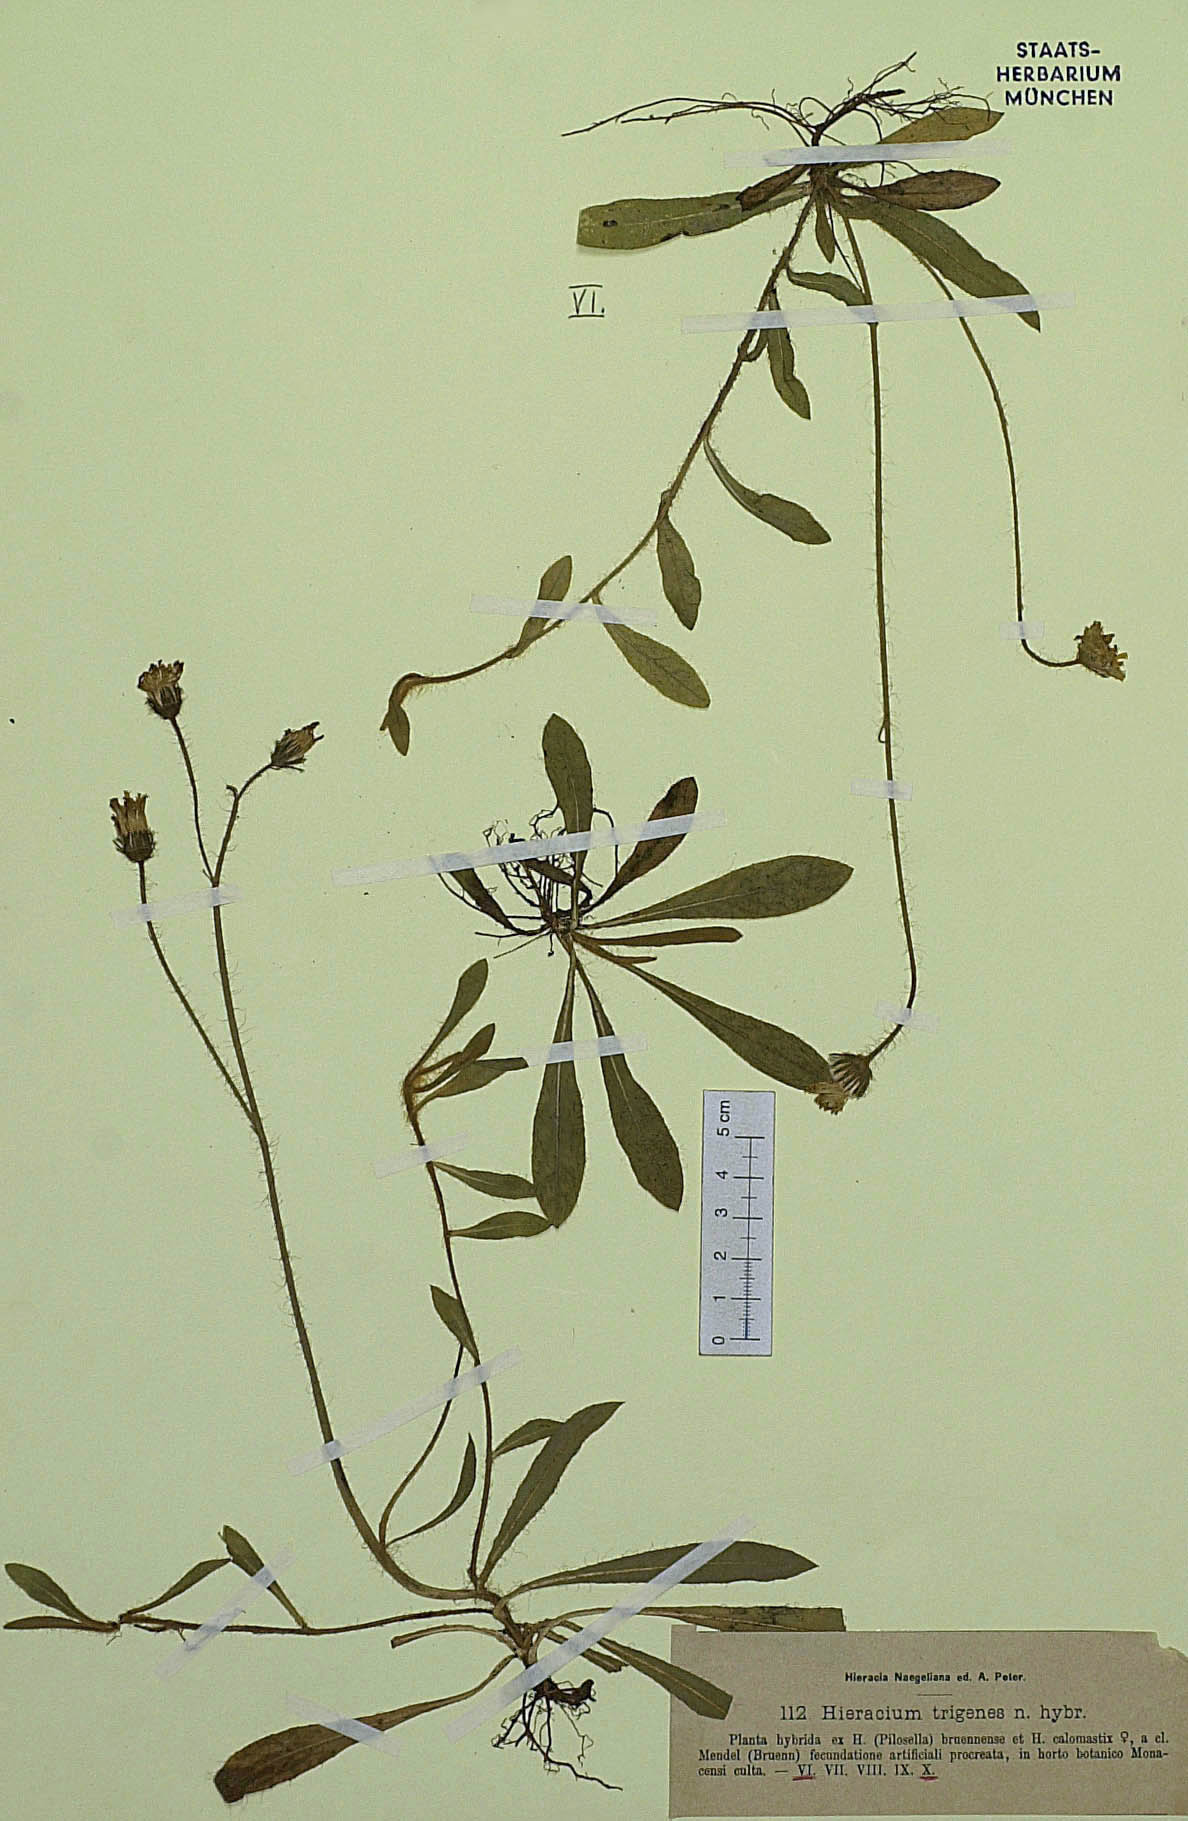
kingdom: Plantae
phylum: Tracheophyta
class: Magnoliopsida
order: Asterales
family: Asteraceae
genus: Pilosella
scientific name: Pilosella trigenes
